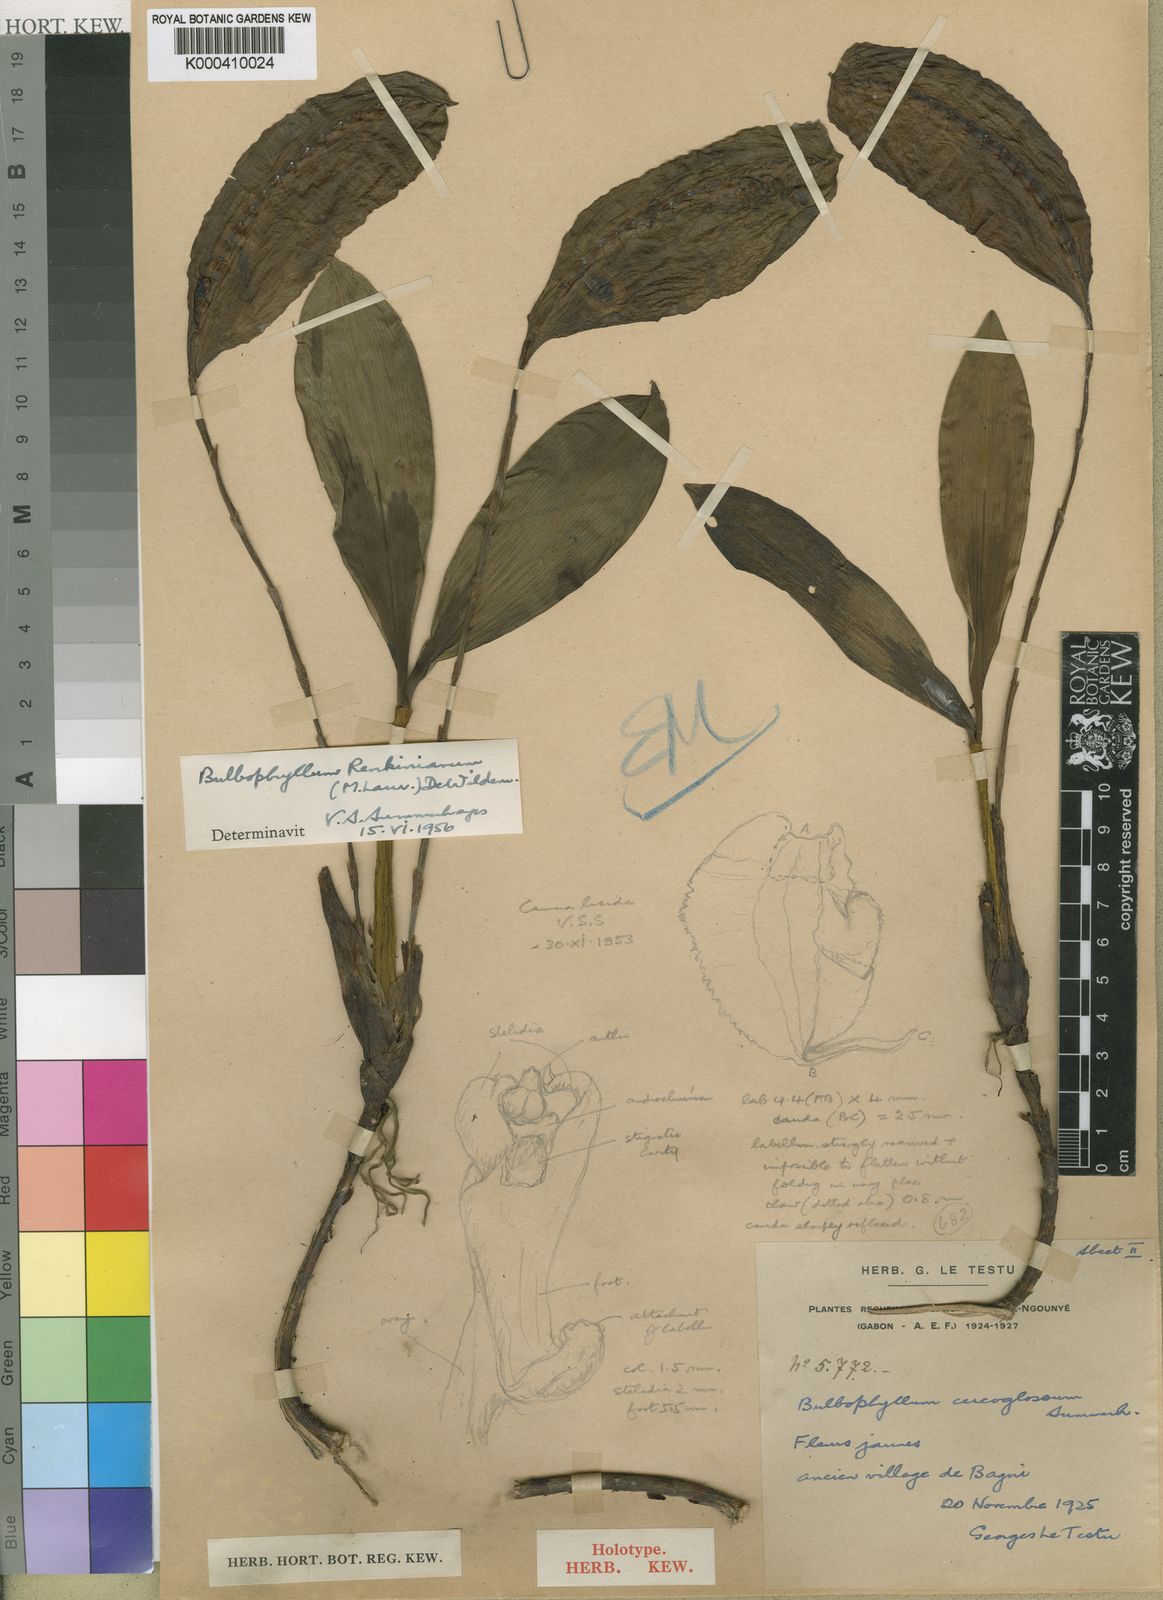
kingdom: Plantae
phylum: Tracheophyta
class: Liliopsida
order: Asparagales
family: Orchidaceae
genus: Bulbophyllum
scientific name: Bulbophyllum renkinianum
